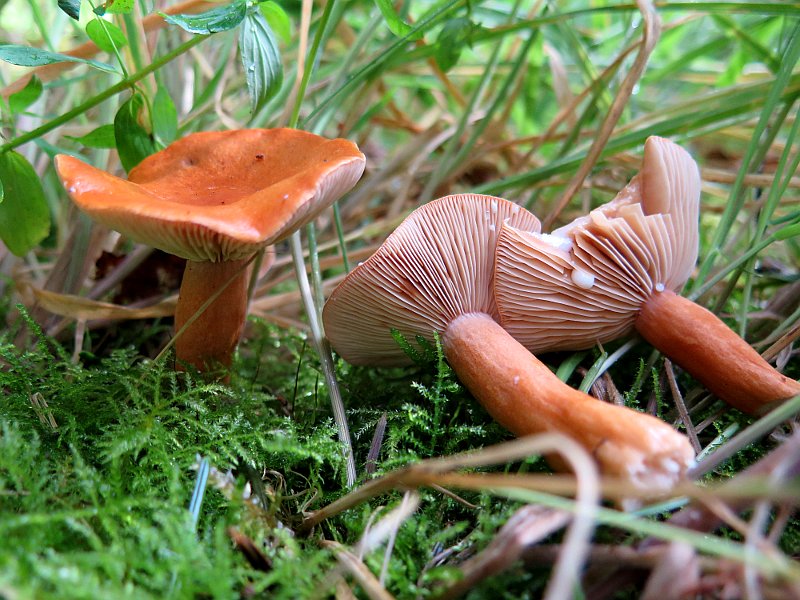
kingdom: Fungi
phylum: Basidiomycota
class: Agaricomycetes
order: Russulales
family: Russulaceae
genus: Lactarius
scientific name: Lactarius aurantiacus
